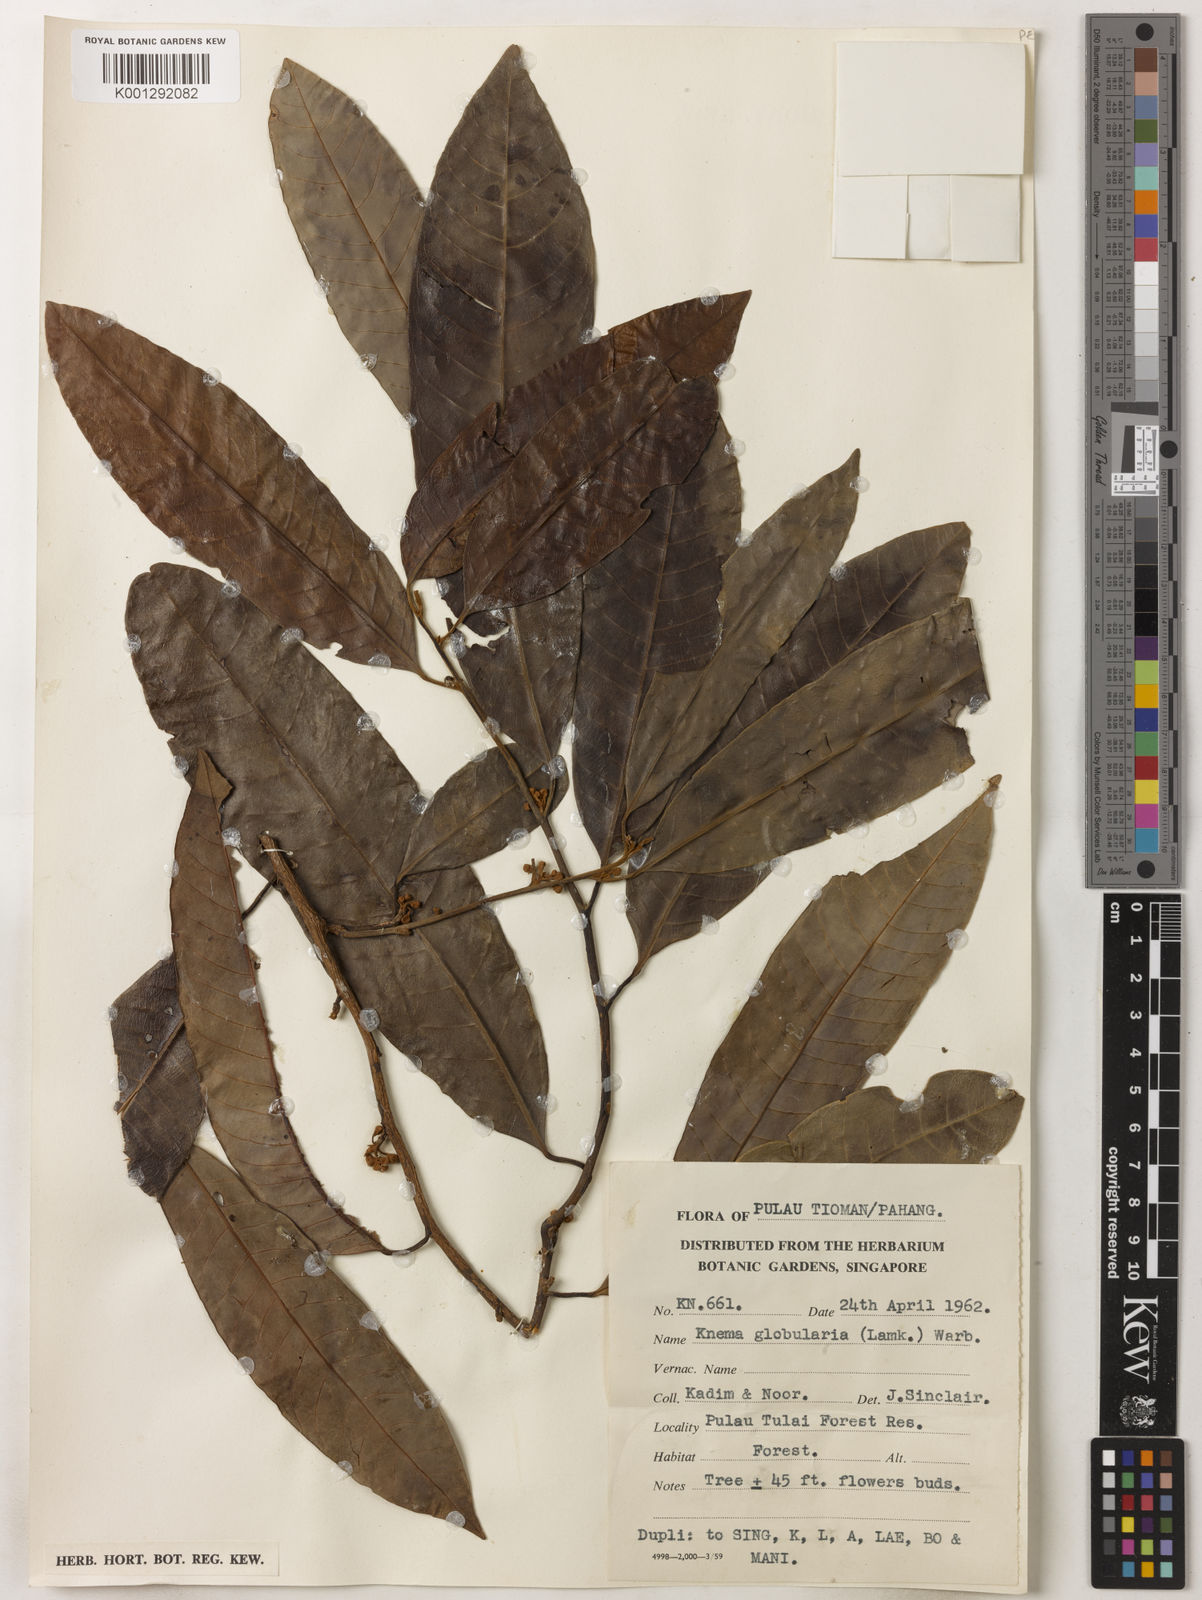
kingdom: Plantae
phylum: Tracheophyta
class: Magnoliopsida
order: Magnoliales
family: Myristicaceae
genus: Knema
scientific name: Knema globularia
